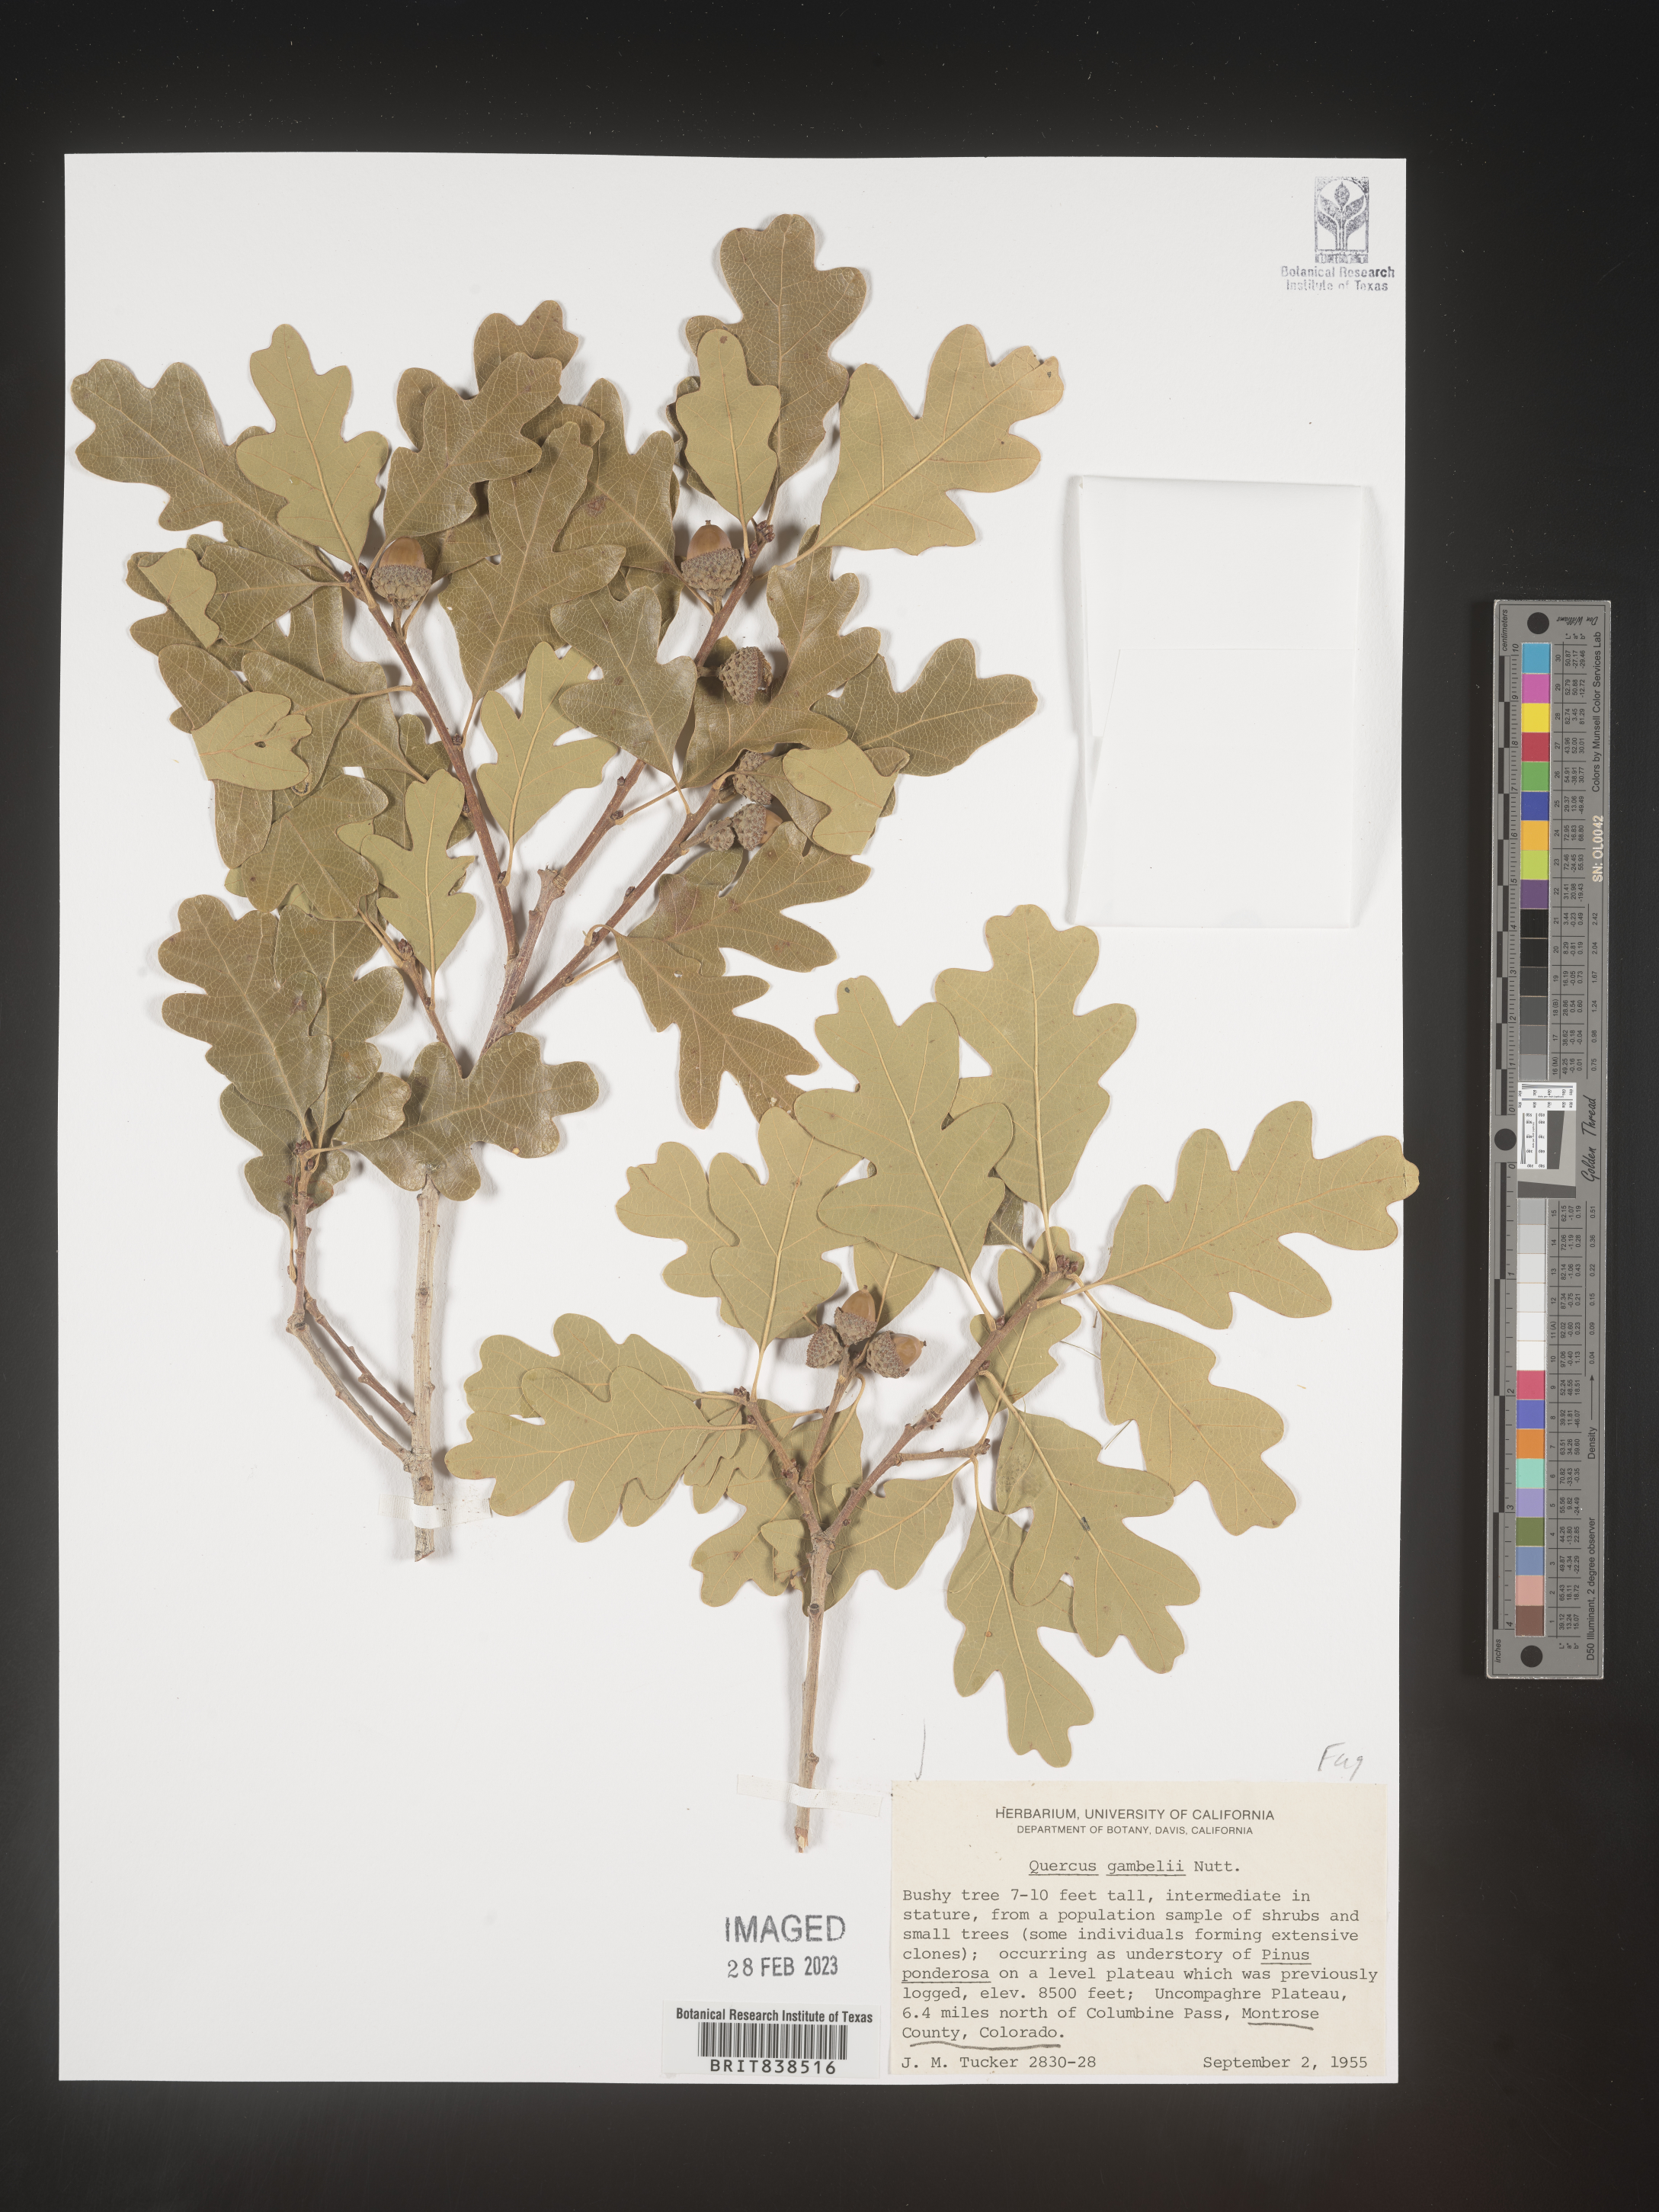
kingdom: Plantae
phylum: Tracheophyta
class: Magnoliopsida
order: Fagales
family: Fagaceae
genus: Quercus
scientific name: Quercus gambelii
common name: Gambel oak
